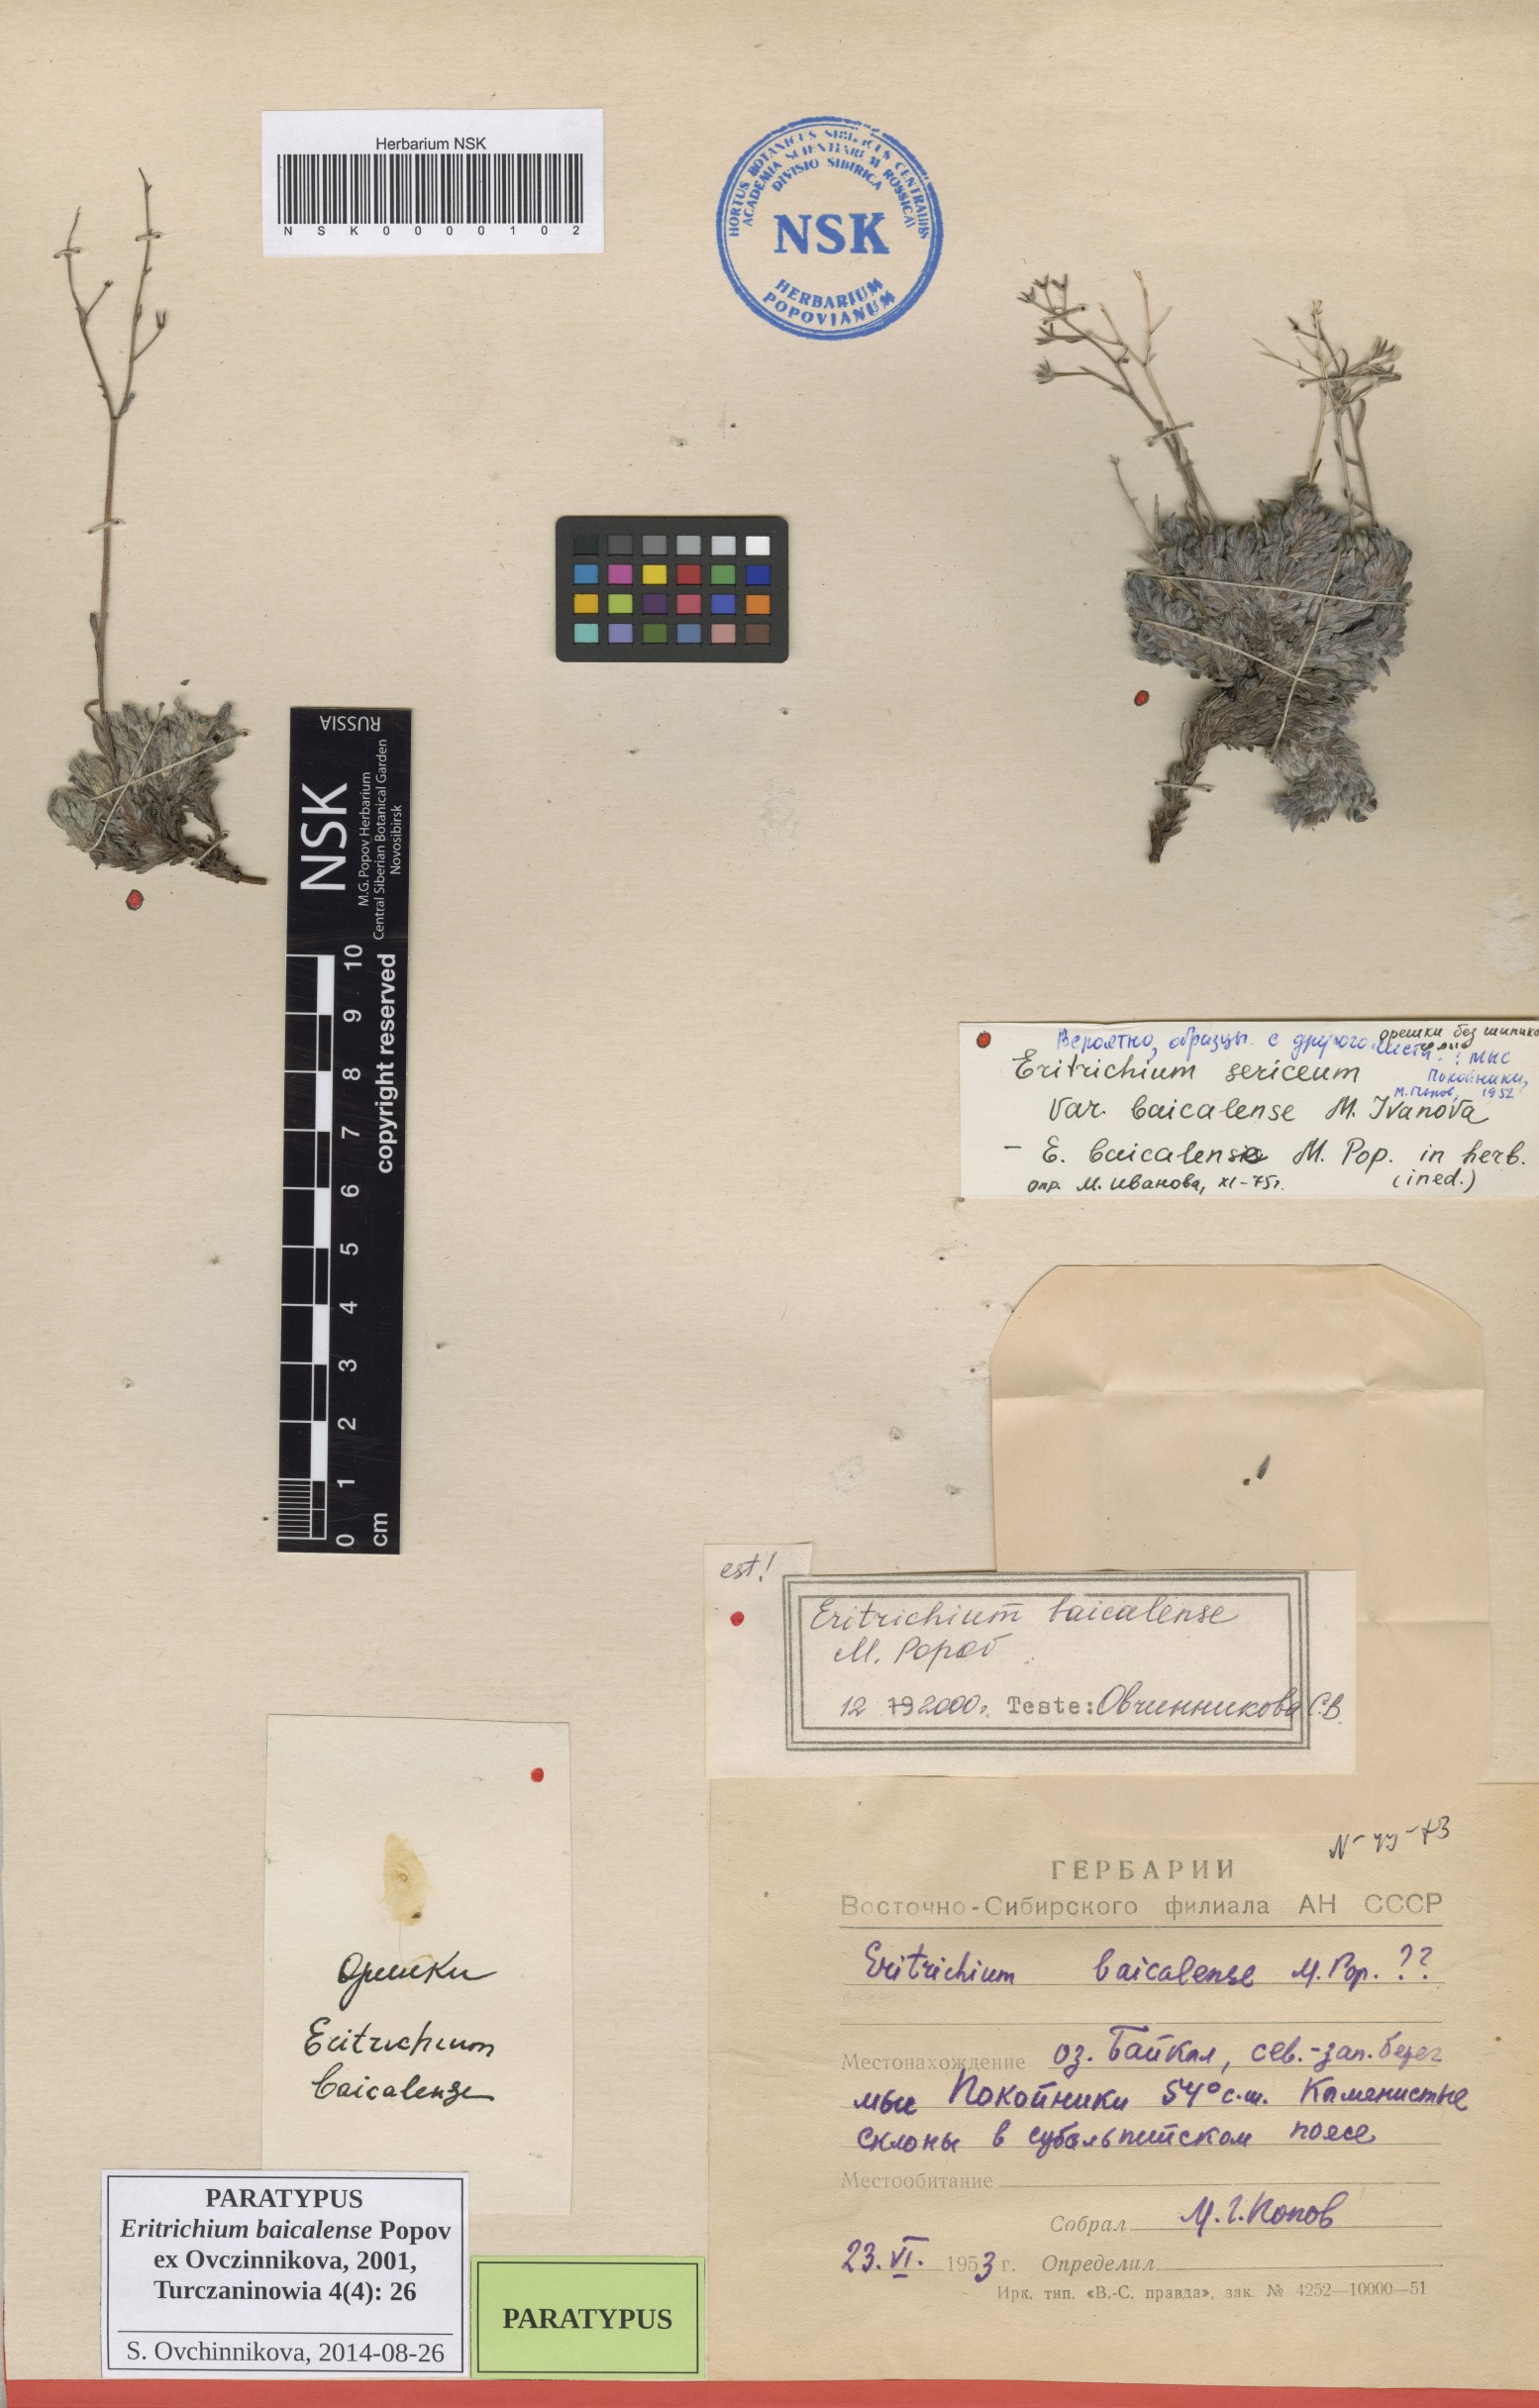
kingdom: Plantae
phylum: Tracheophyta
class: Magnoliopsida
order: Boraginales
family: Boraginaceae
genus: Eritrichium
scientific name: Eritrichium baicalense
